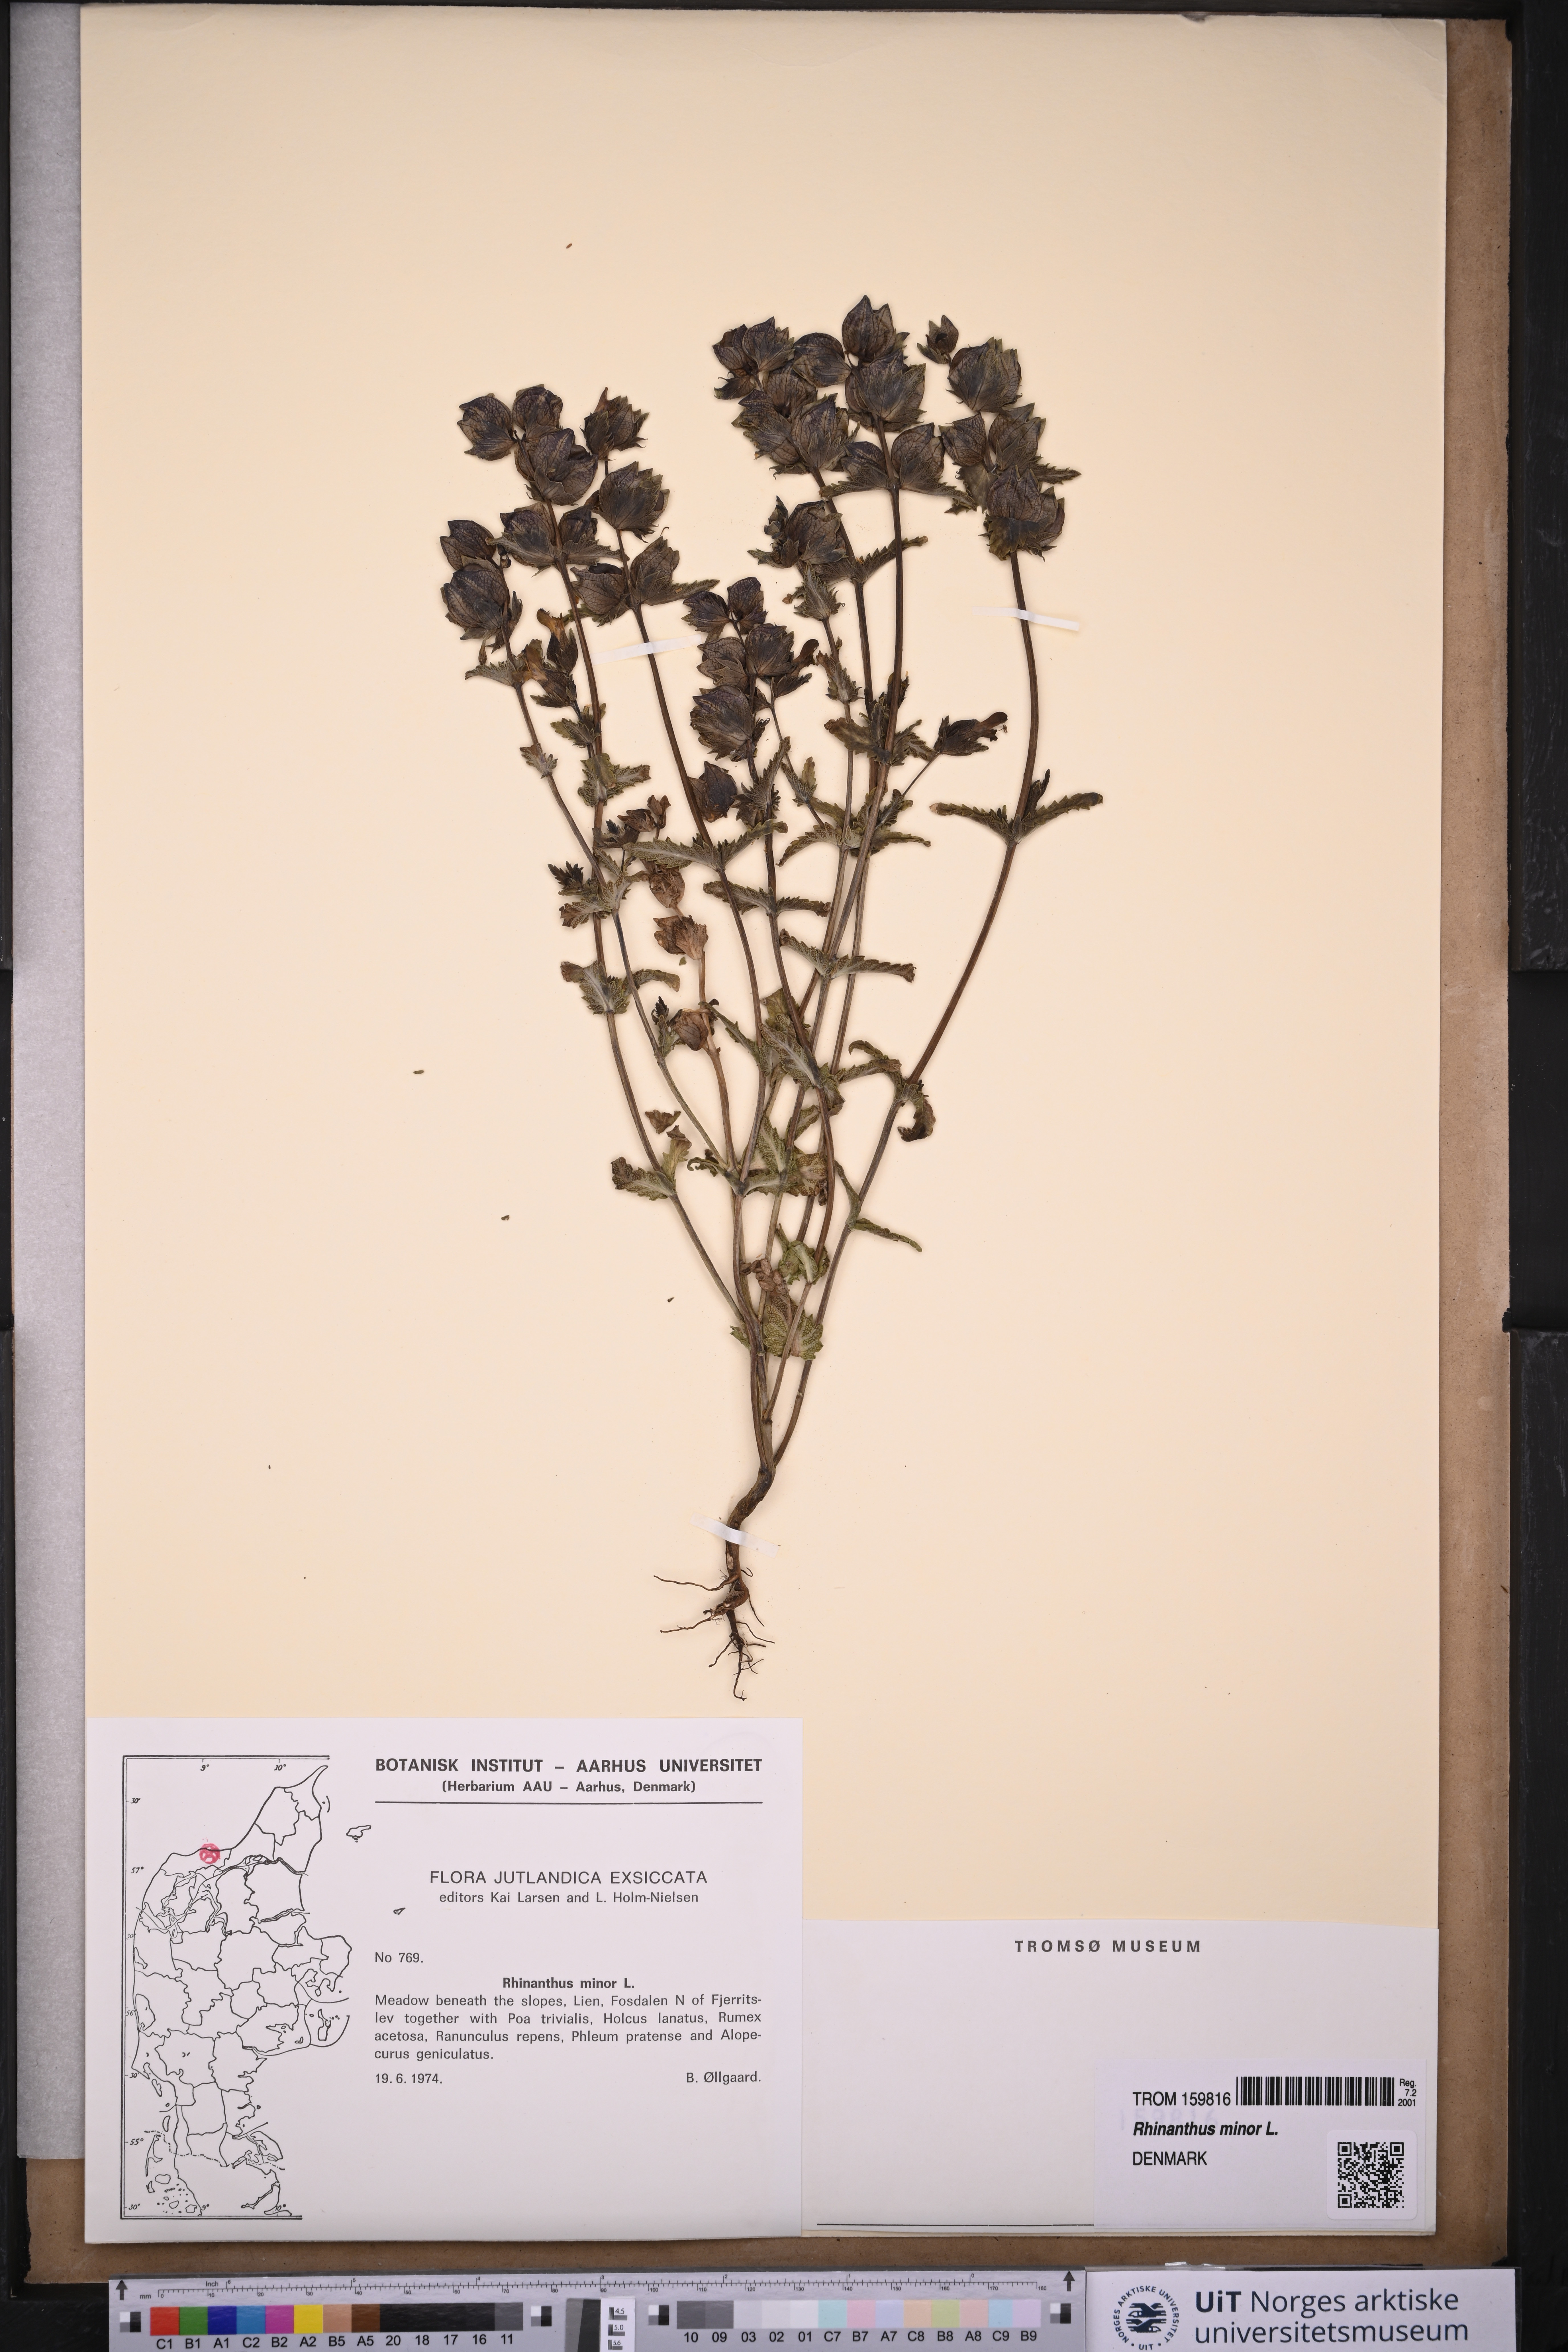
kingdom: Plantae
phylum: Tracheophyta
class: Magnoliopsida
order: Lamiales
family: Orobanchaceae
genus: Rhinanthus
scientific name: Rhinanthus minor
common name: Yellow-rattle
